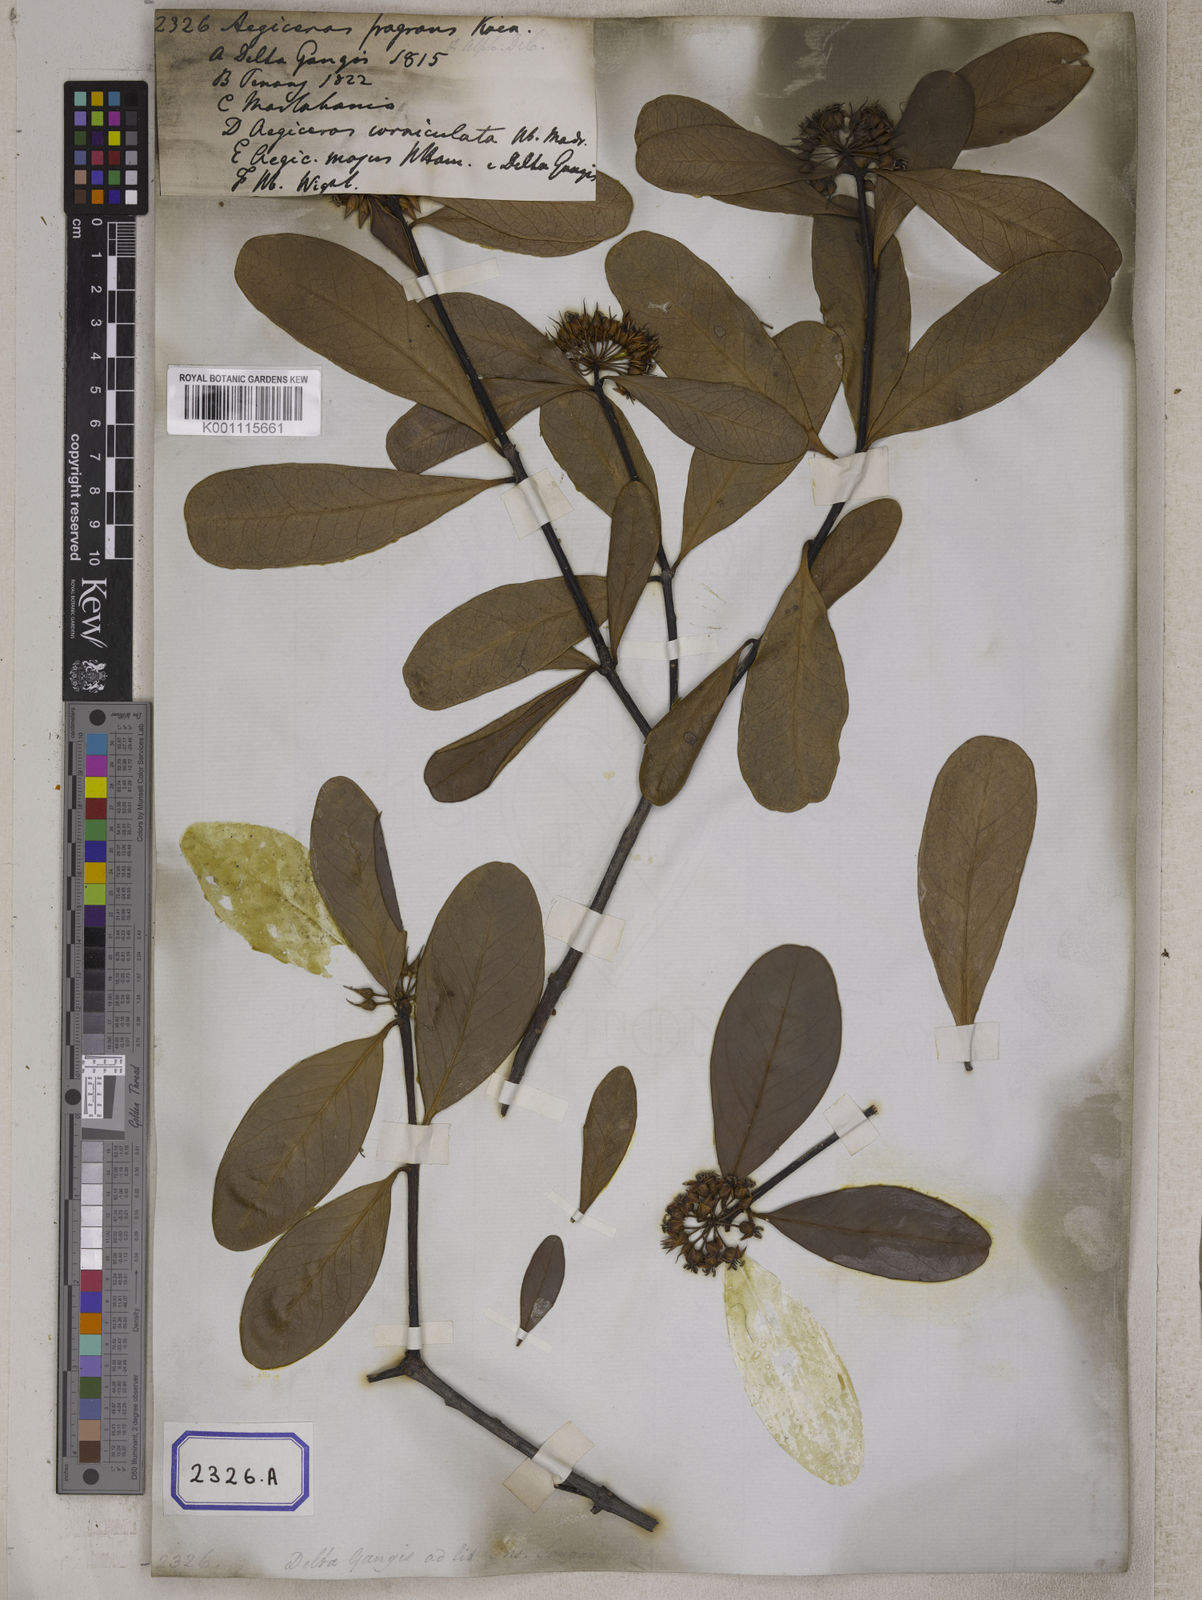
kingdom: Plantae
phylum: Tracheophyta
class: Magnoliopsida
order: Ericales
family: Primulaceae
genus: Aegiceras
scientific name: Aegiceras corniculatum
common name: River mangrove
